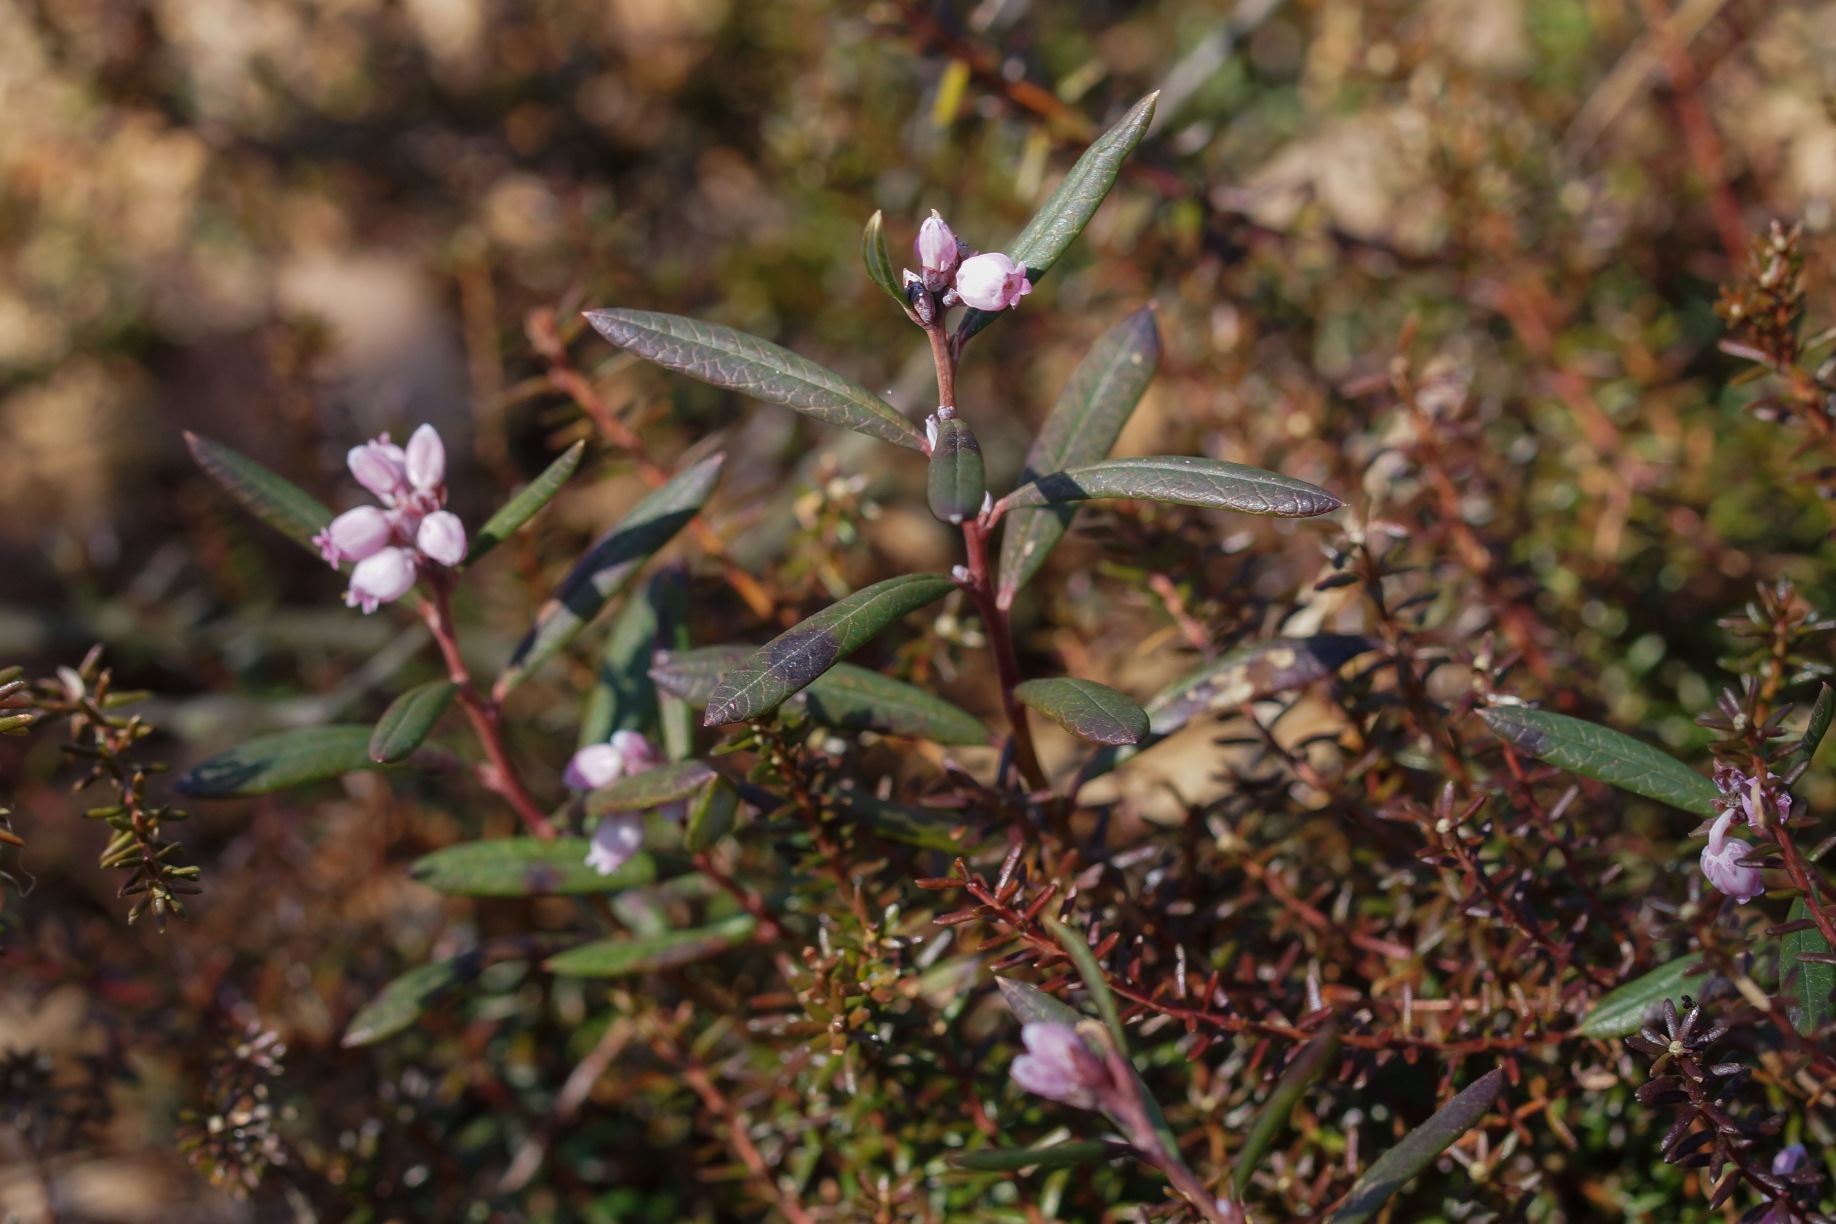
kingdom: Plantae
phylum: Tracheophyta
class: Magnoliopsida
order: Ericales
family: Ericaceae
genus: Andromeda
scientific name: Andromeda polifolia
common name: Rosmarinlyng
